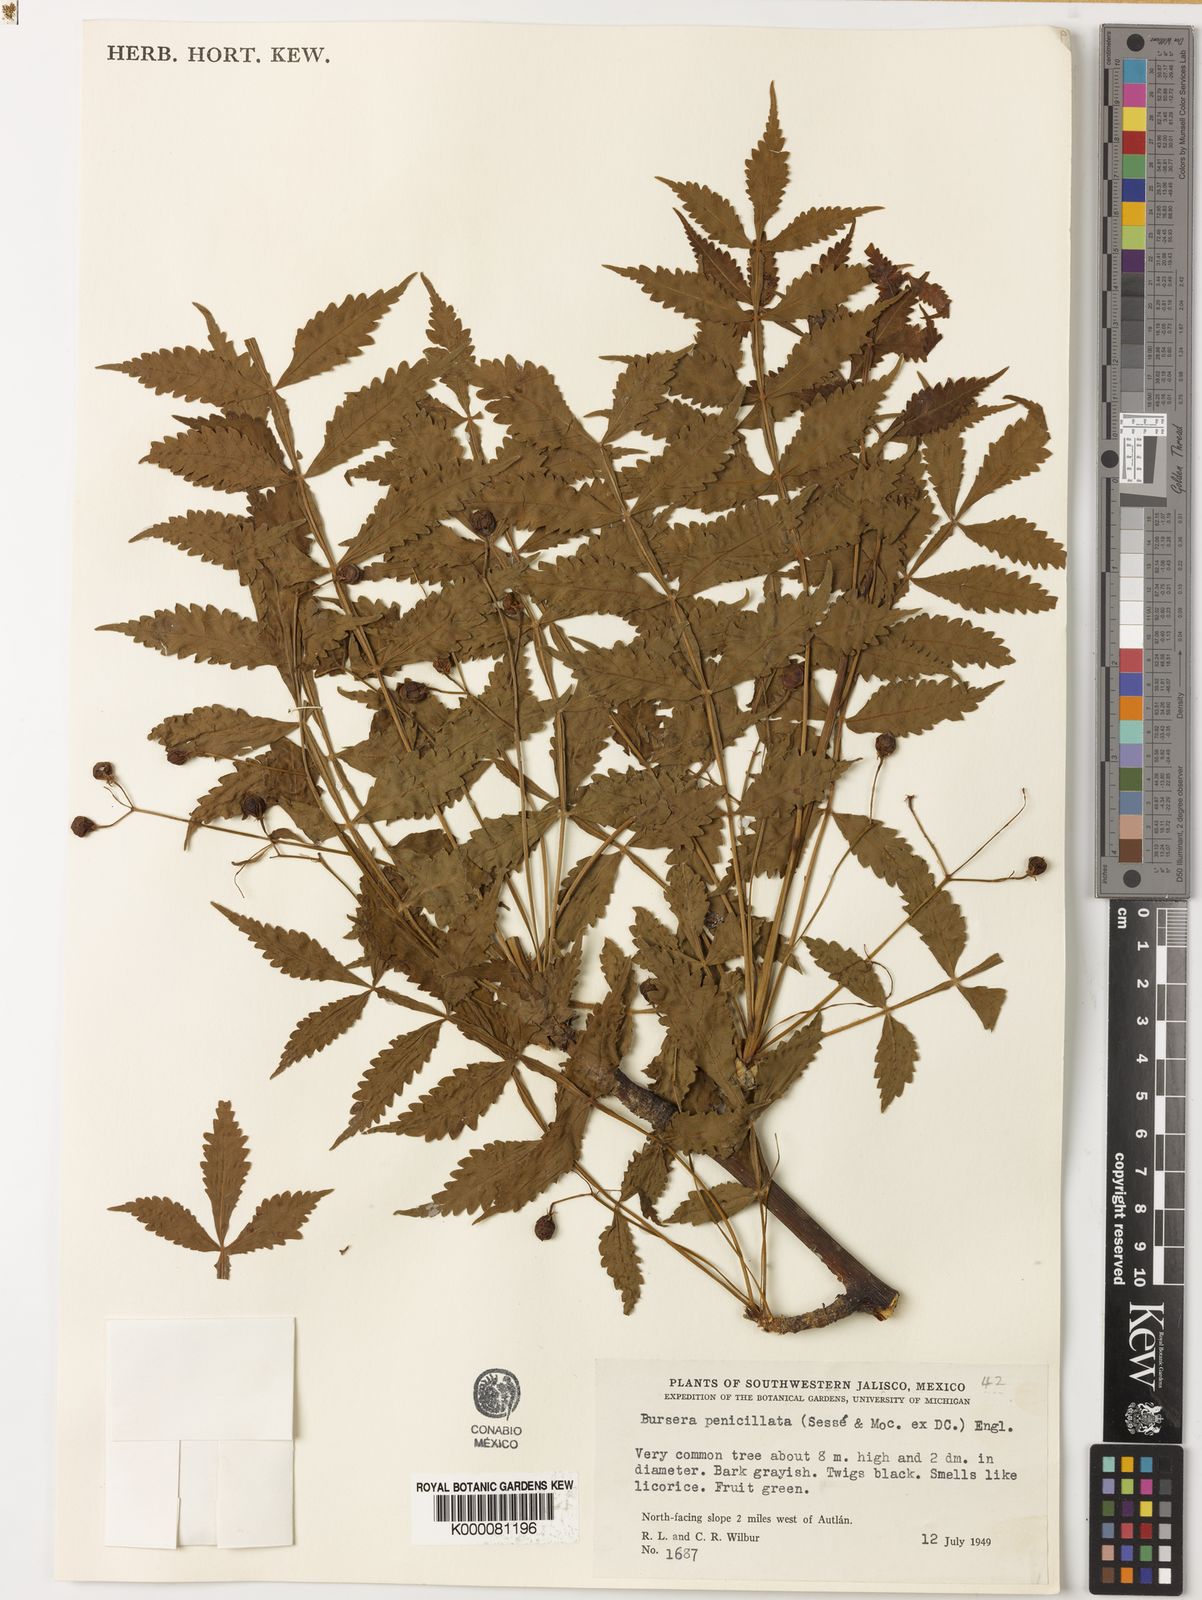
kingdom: Plantae
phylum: Tracheophyta
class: Magnoliopsida
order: Sapindales
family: Burseraceae
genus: Bursera
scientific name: Bursera penicillata
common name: Indian-lavender
